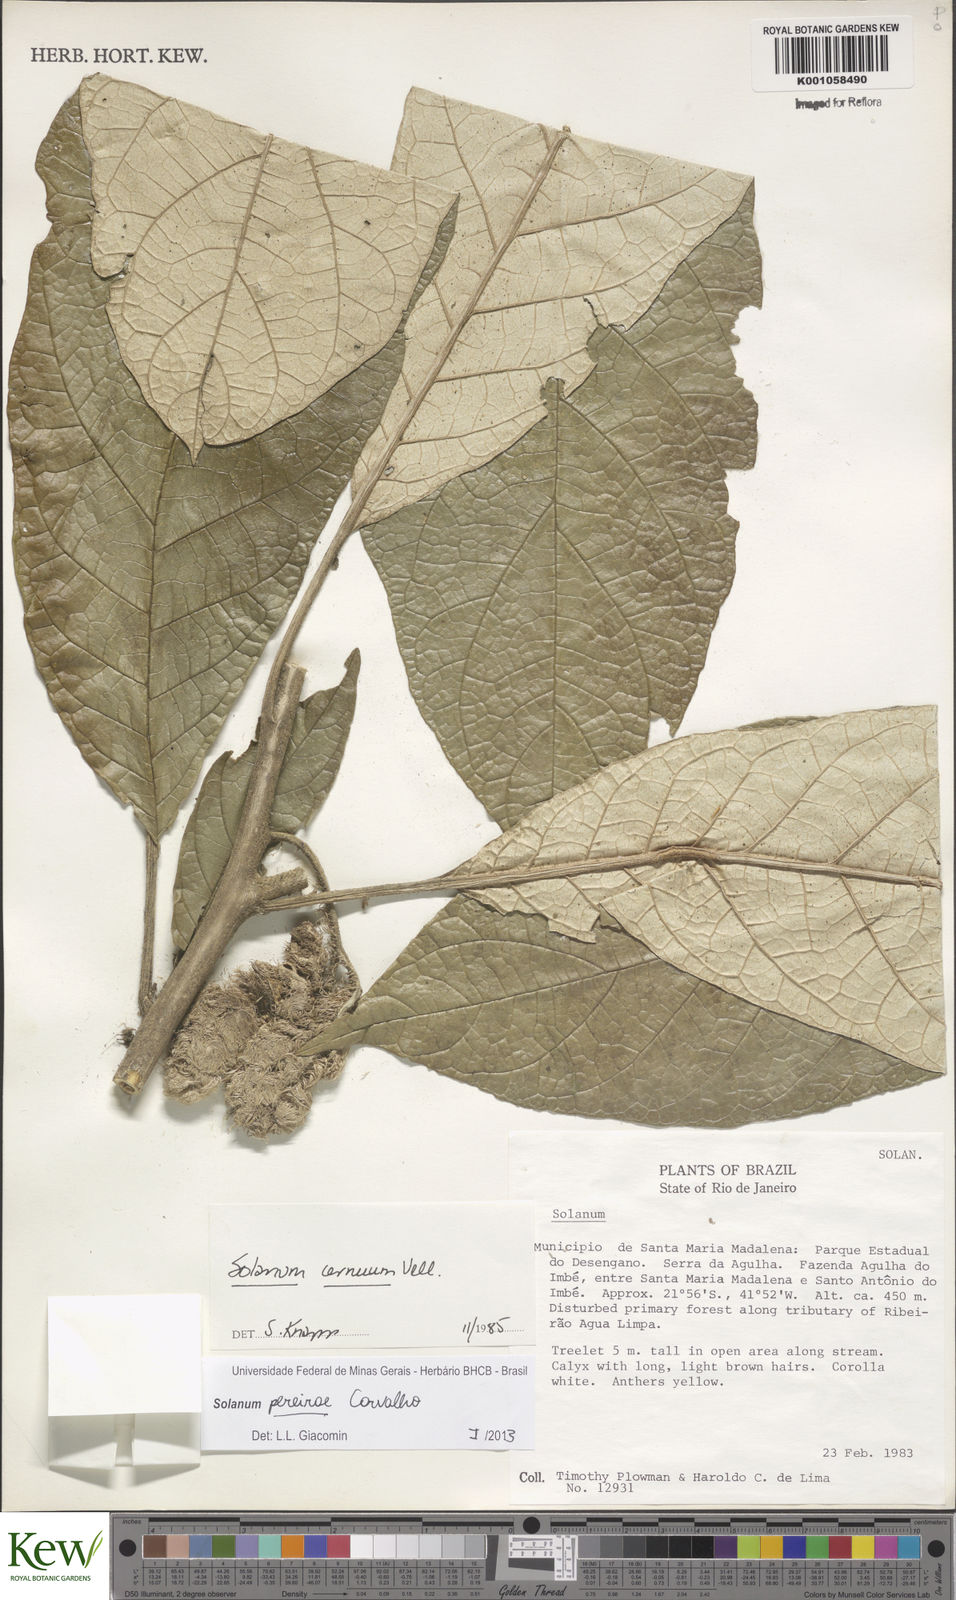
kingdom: Plantae
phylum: Tracheophyta
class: Magnoliopsida
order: Solanales
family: Solanaceae
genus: Solanum
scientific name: Solanum
